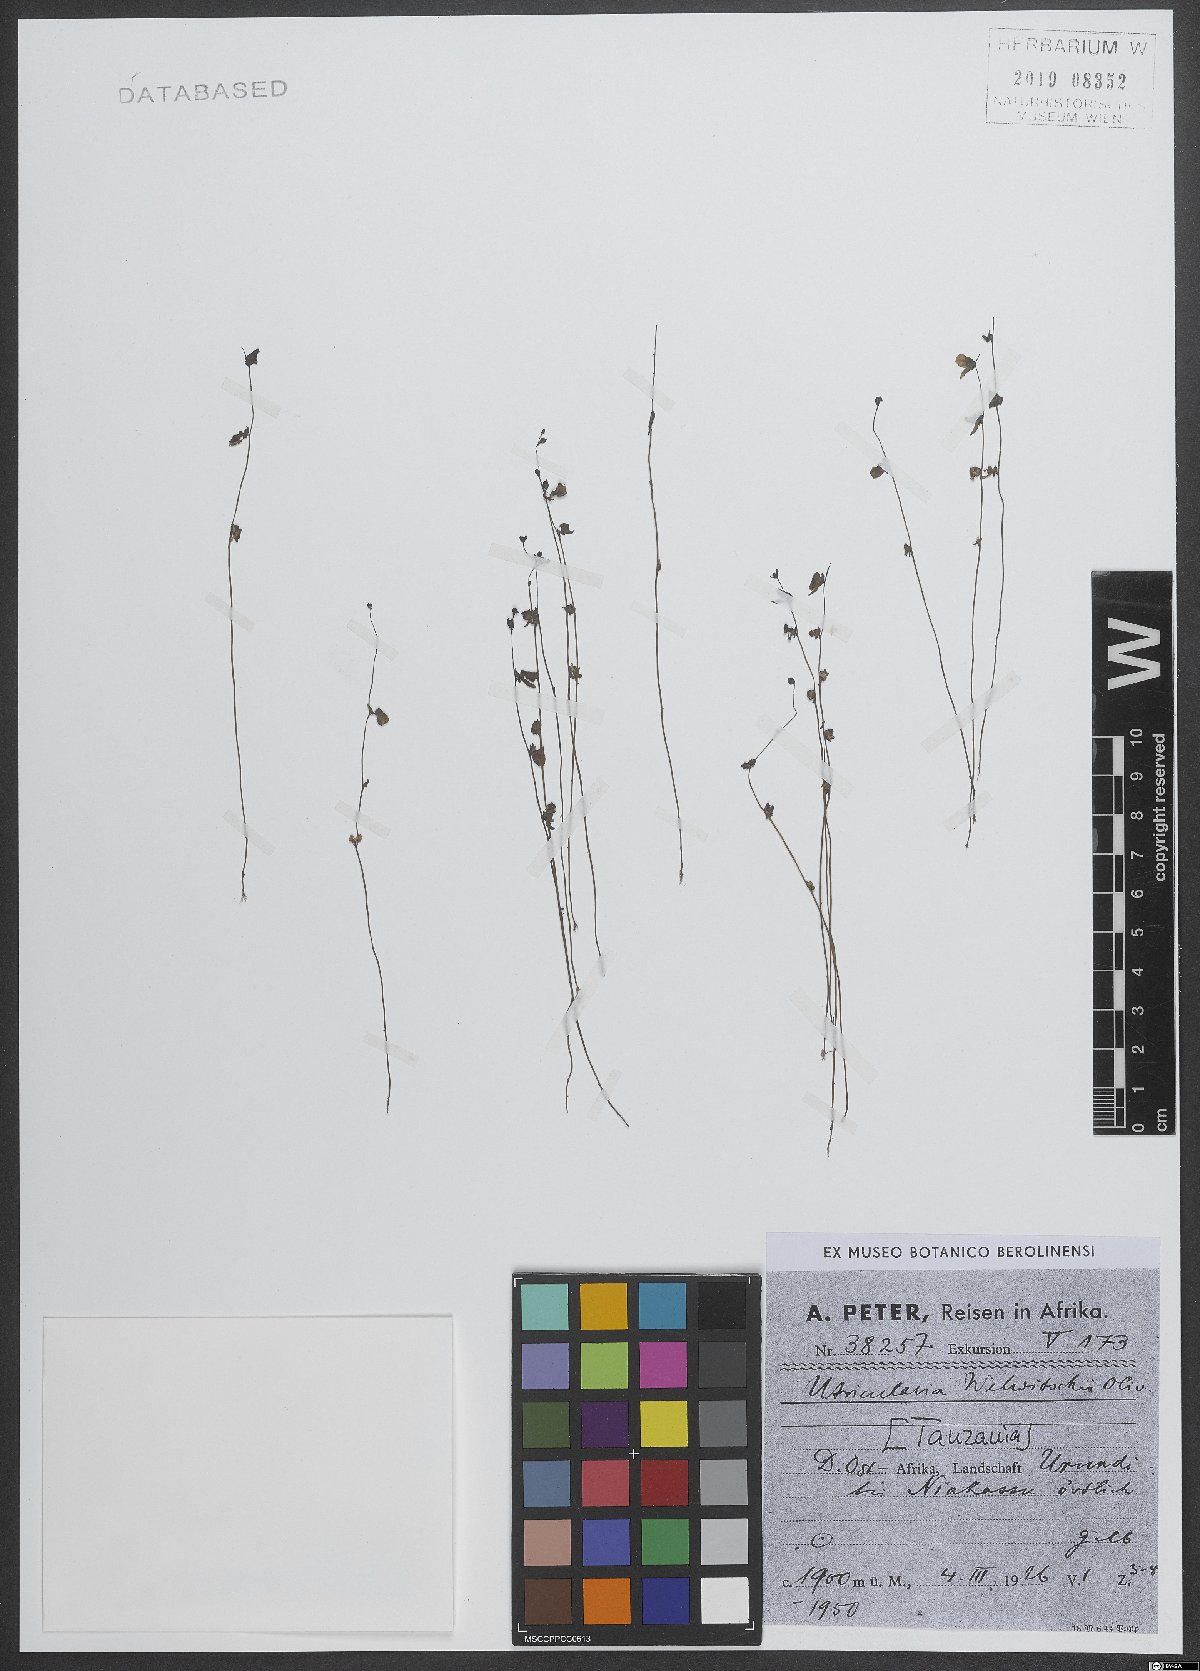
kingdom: Plantae
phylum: Tracheophyta
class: Magnoliopsida
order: Lamiales
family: Lentibulariaceae
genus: Utricularia
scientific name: Utricularia welwitschii
